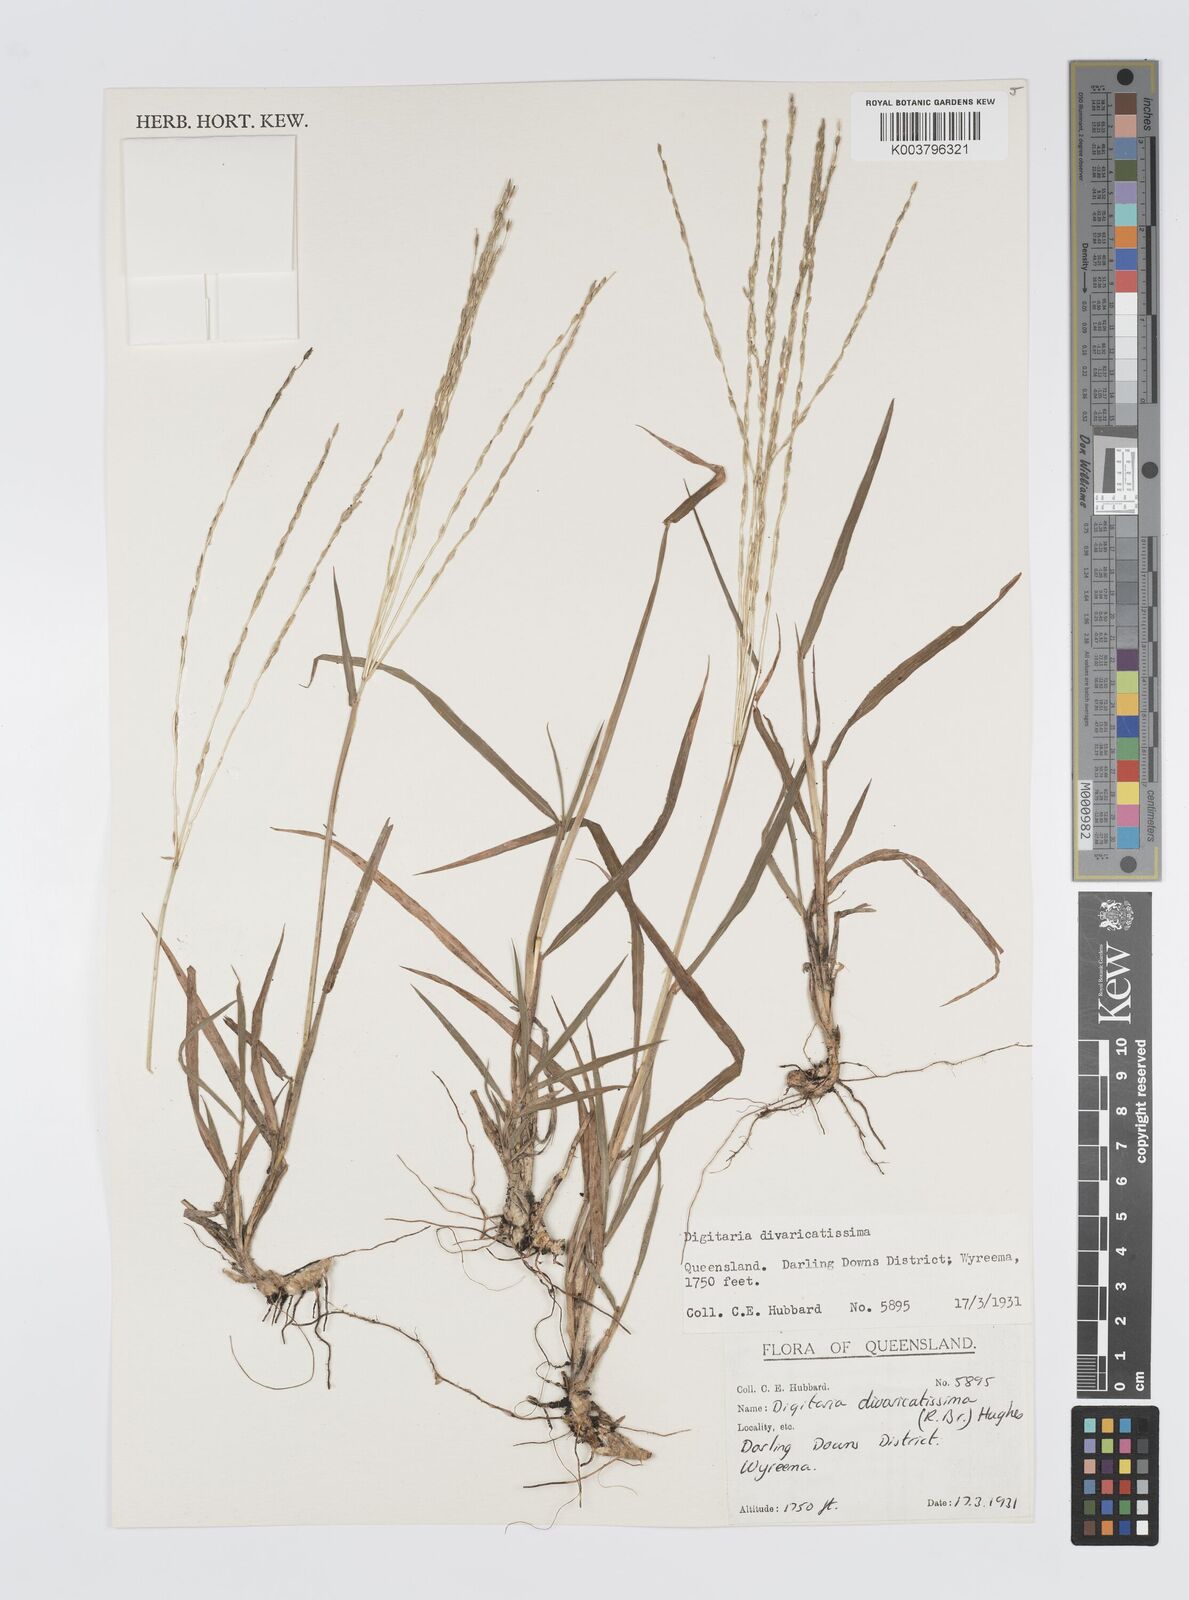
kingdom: Plantae
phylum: Tracheophyta
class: Liliopsida
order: Poales
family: Poaceae
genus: Digitaria
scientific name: Digitaria divaricatissima
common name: Crabgrass
